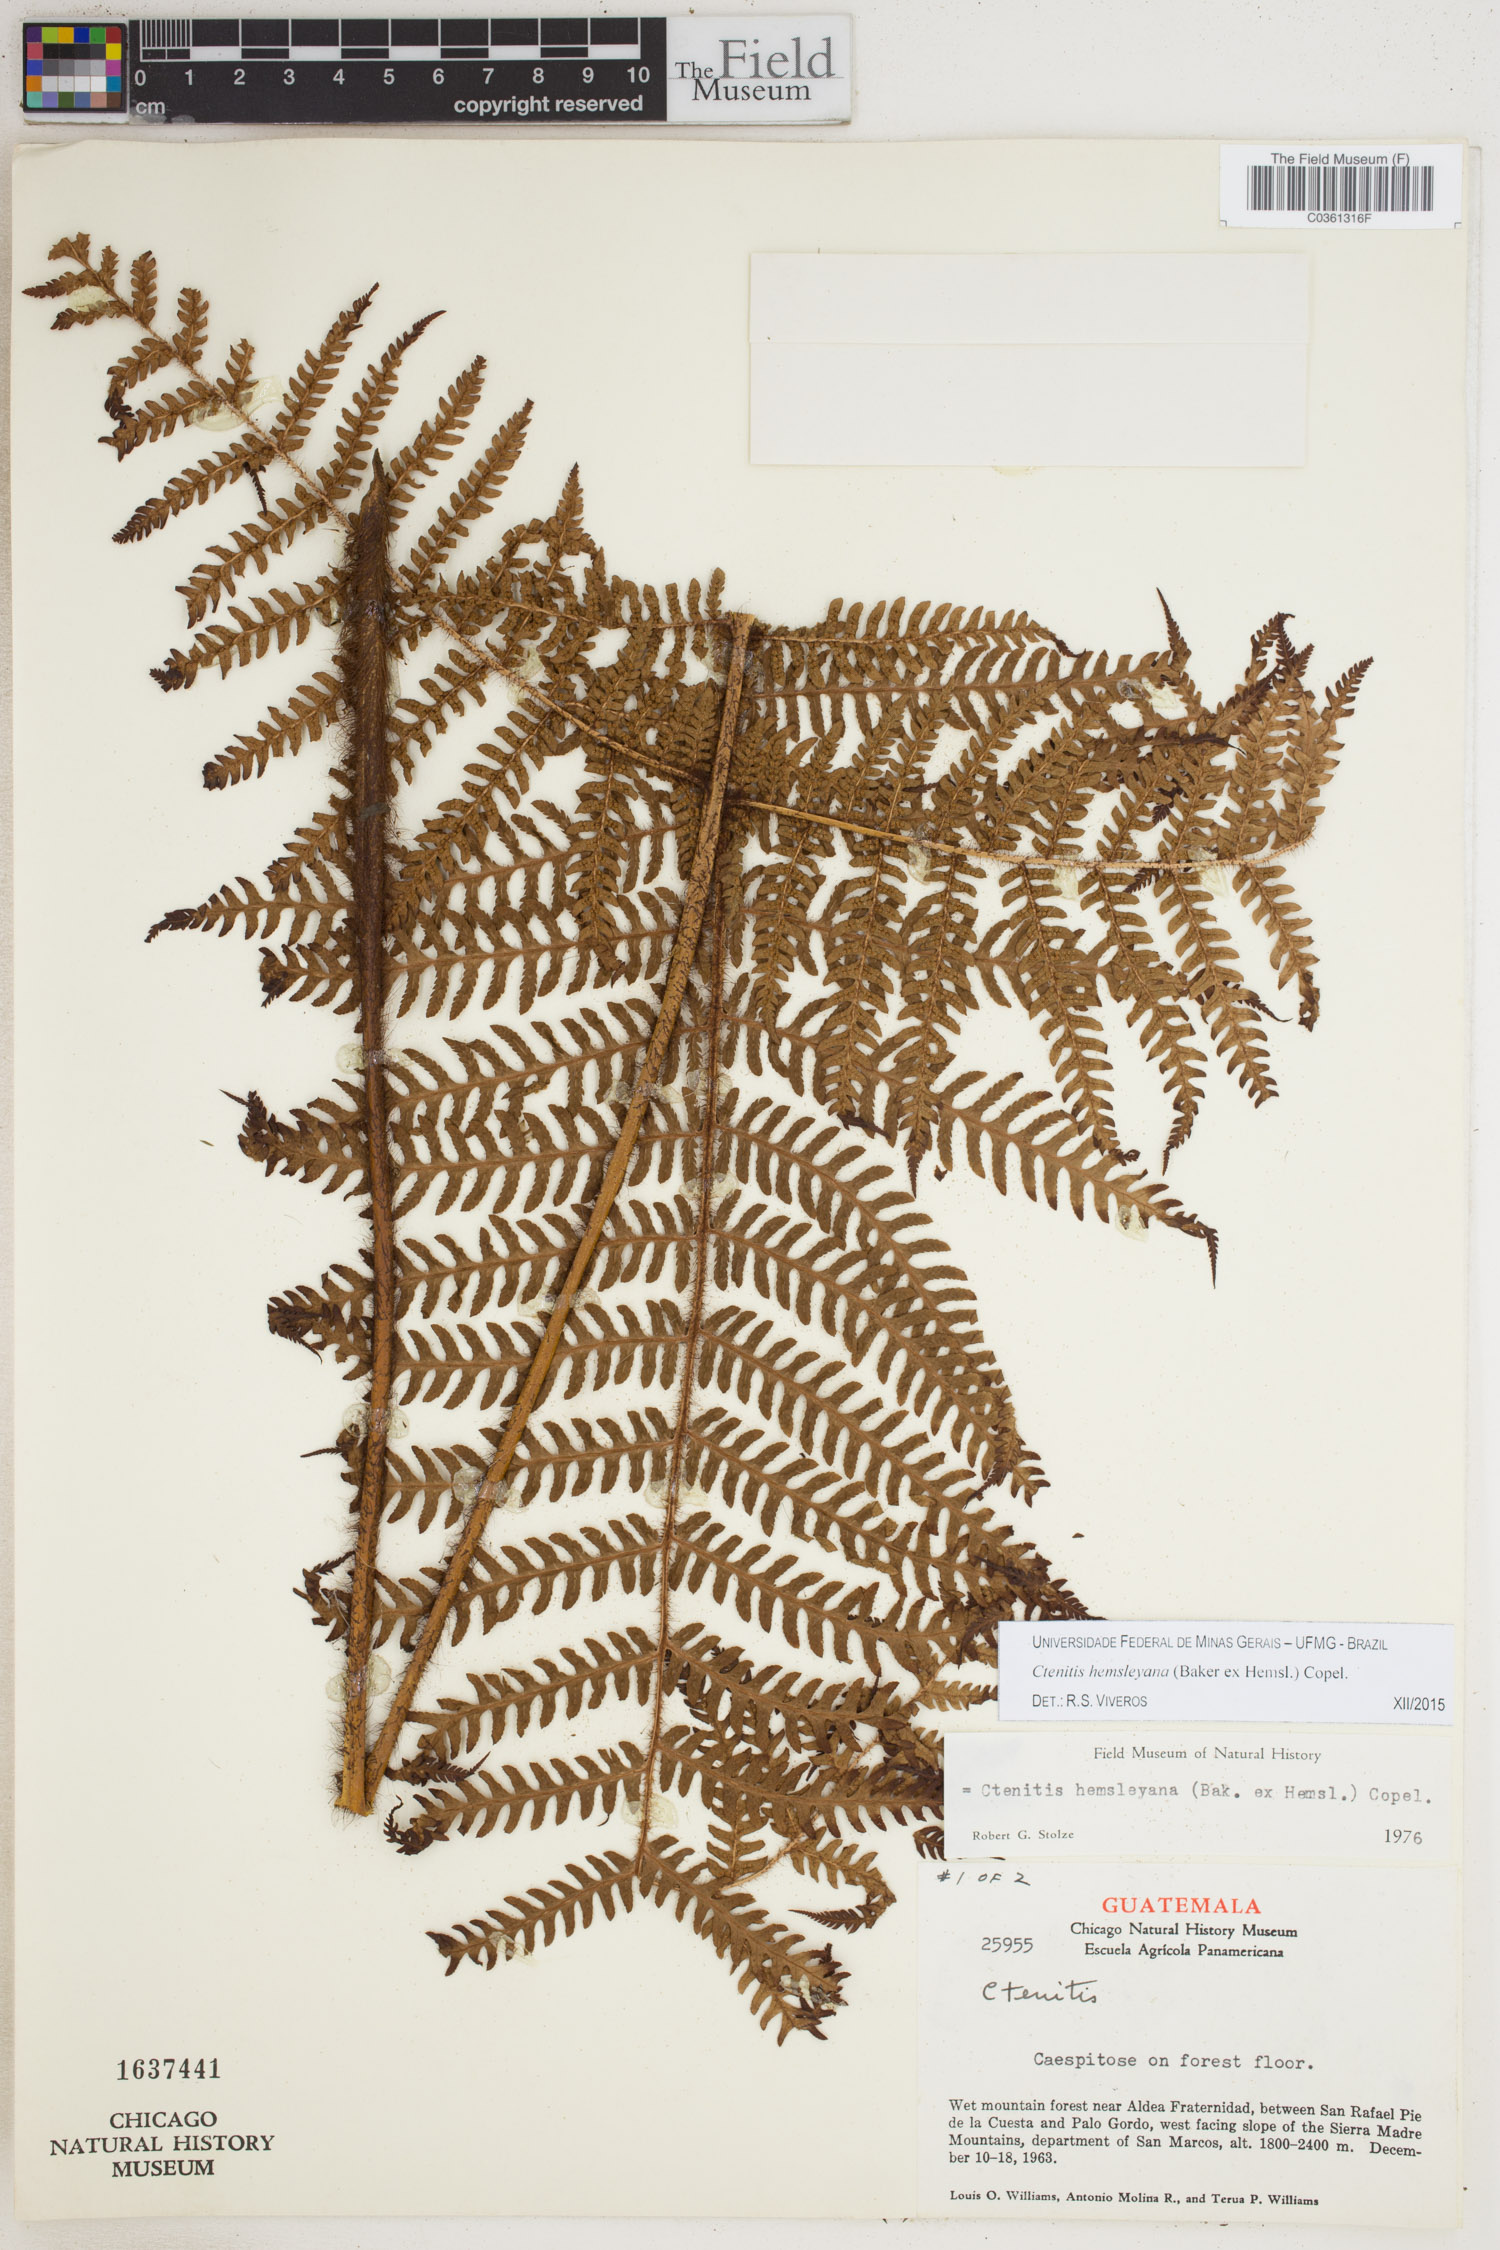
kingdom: Plantae
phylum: Tracheophyta
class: Polypodiopsida
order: Polypodiales
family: Dryopteridaceae
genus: Ctenitis
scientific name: Ctenitis hemsleyana
